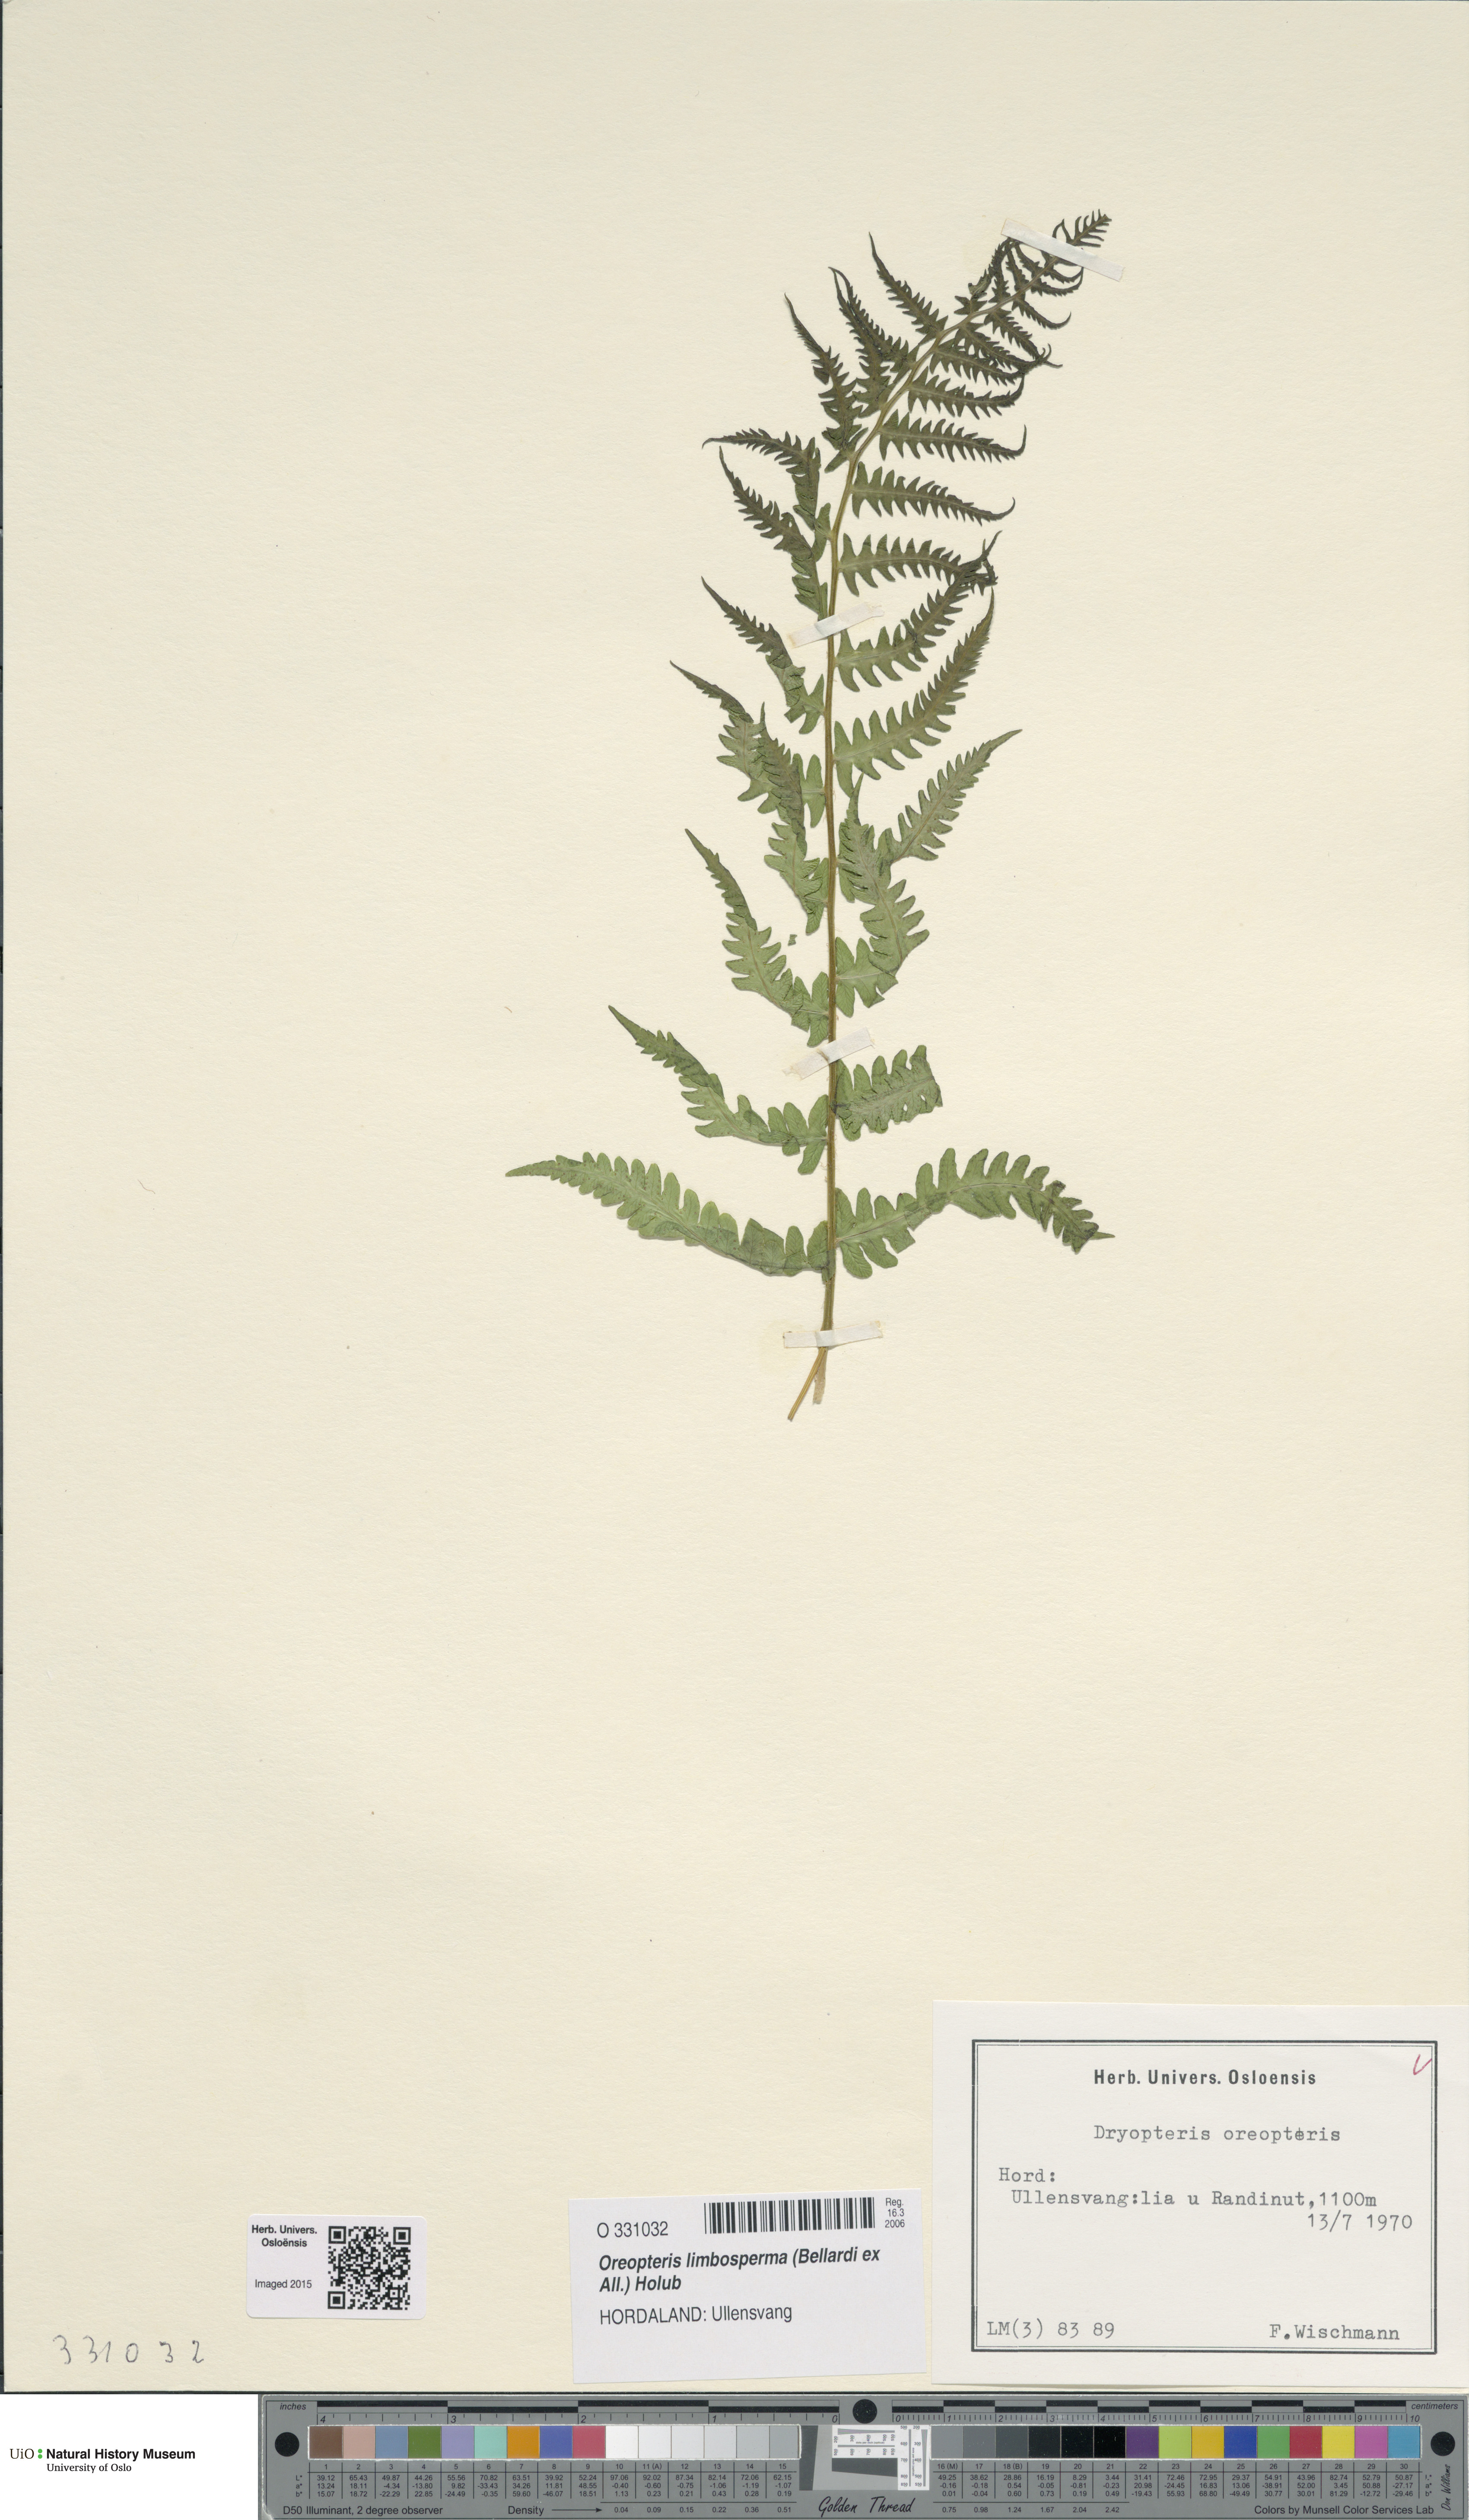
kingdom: Plantae
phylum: Tracheophyta
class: Polypodiopsida
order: Polypodiales
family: Thelypteridaceae
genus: Oreopteris
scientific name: Oreopteris limbosperma
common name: Lemon-scented fern
